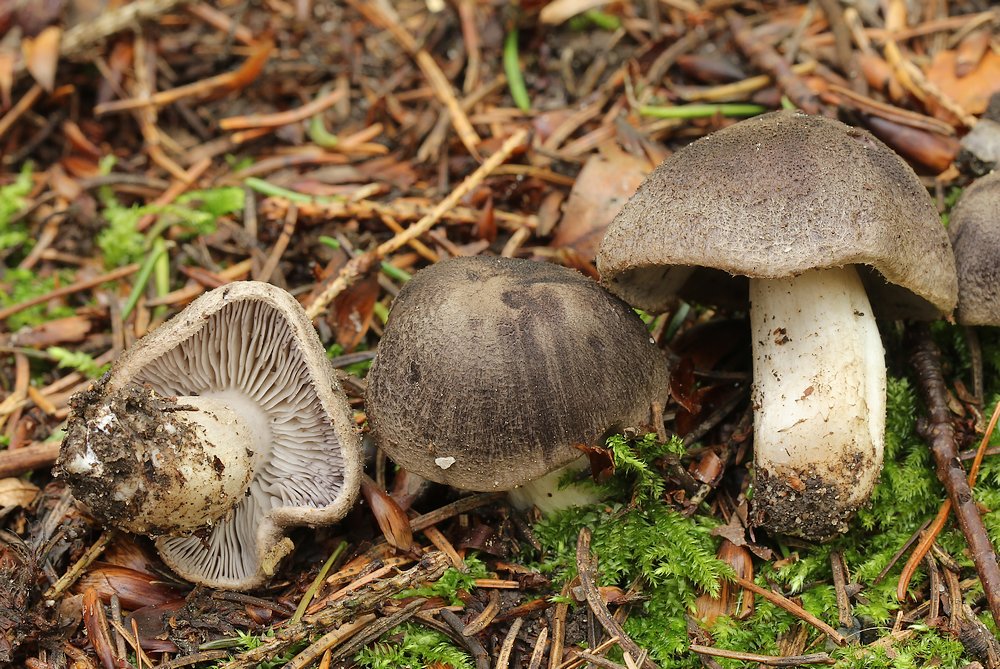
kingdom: Fungi
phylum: Basidiomycota
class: Agaricomycetes
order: Agaricales
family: Tricholomataceae
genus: Tricholoma
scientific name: Tricholoma
